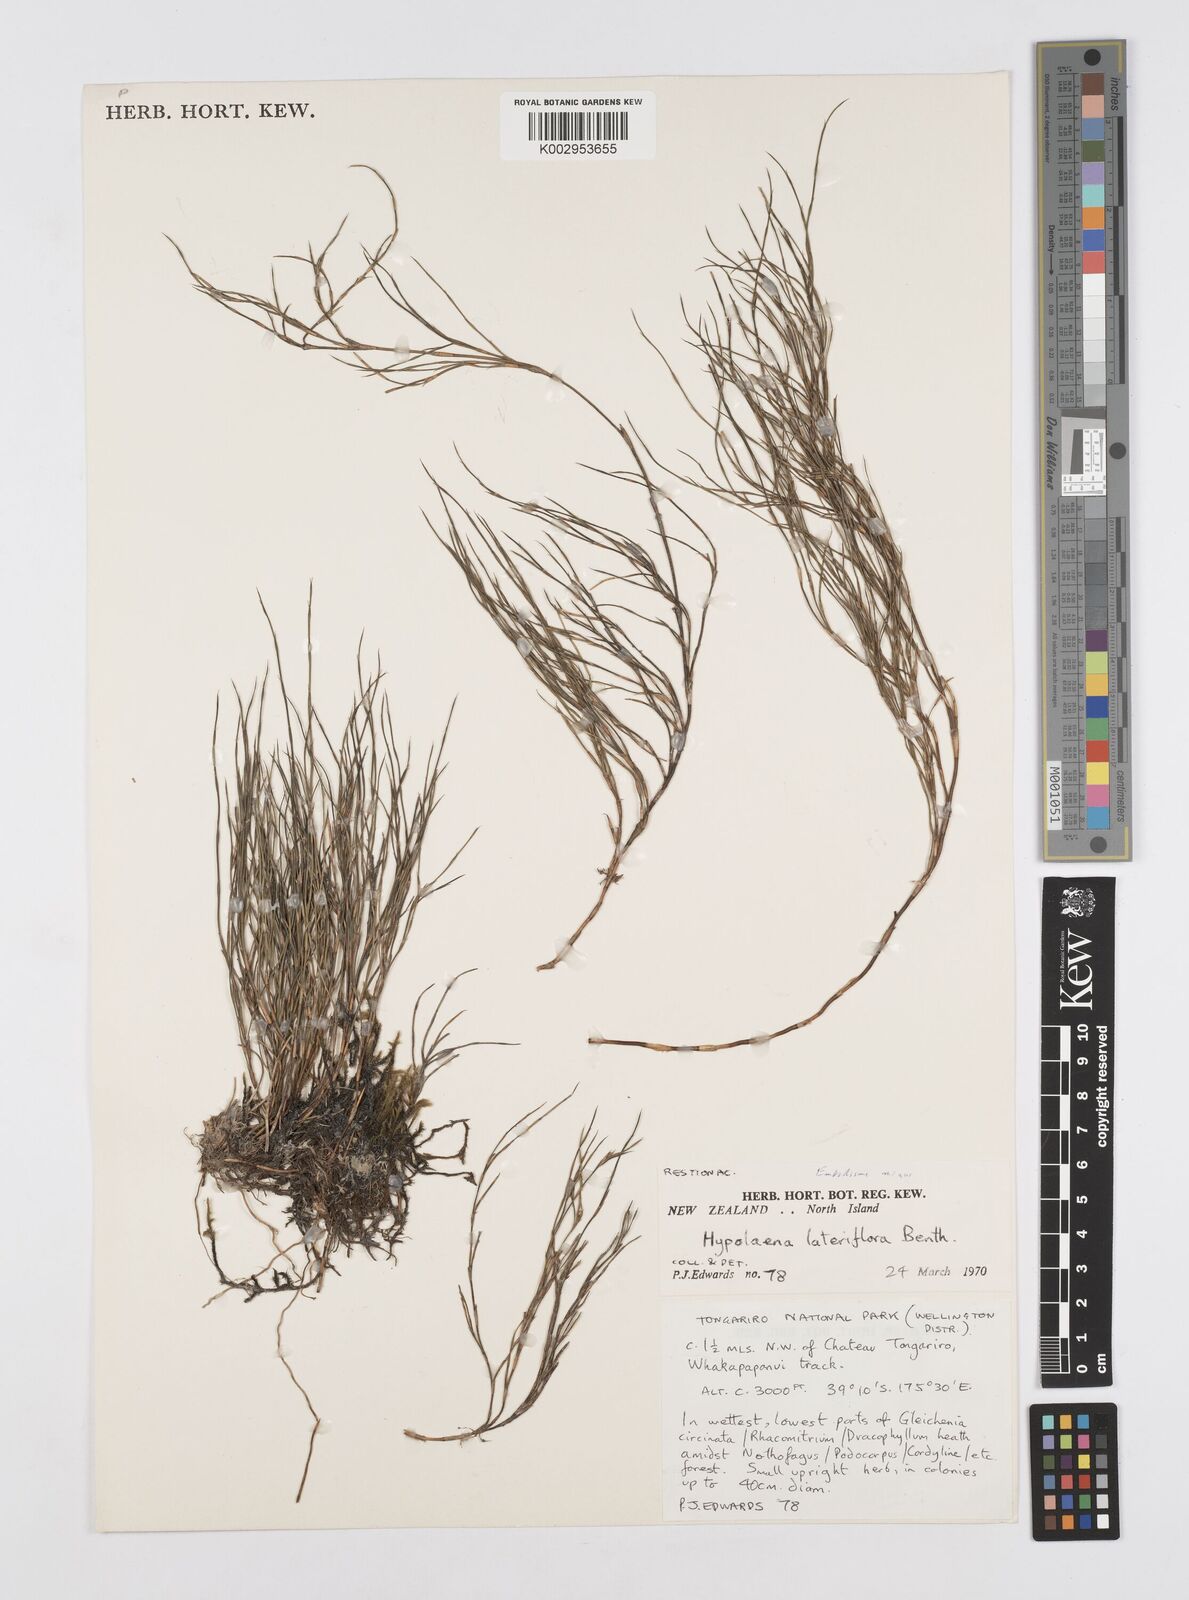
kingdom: Plantae
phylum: Tracheophyta
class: Liliopsida
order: Poales
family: Restionaceae
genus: Empodisma
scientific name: Empodisma minus
